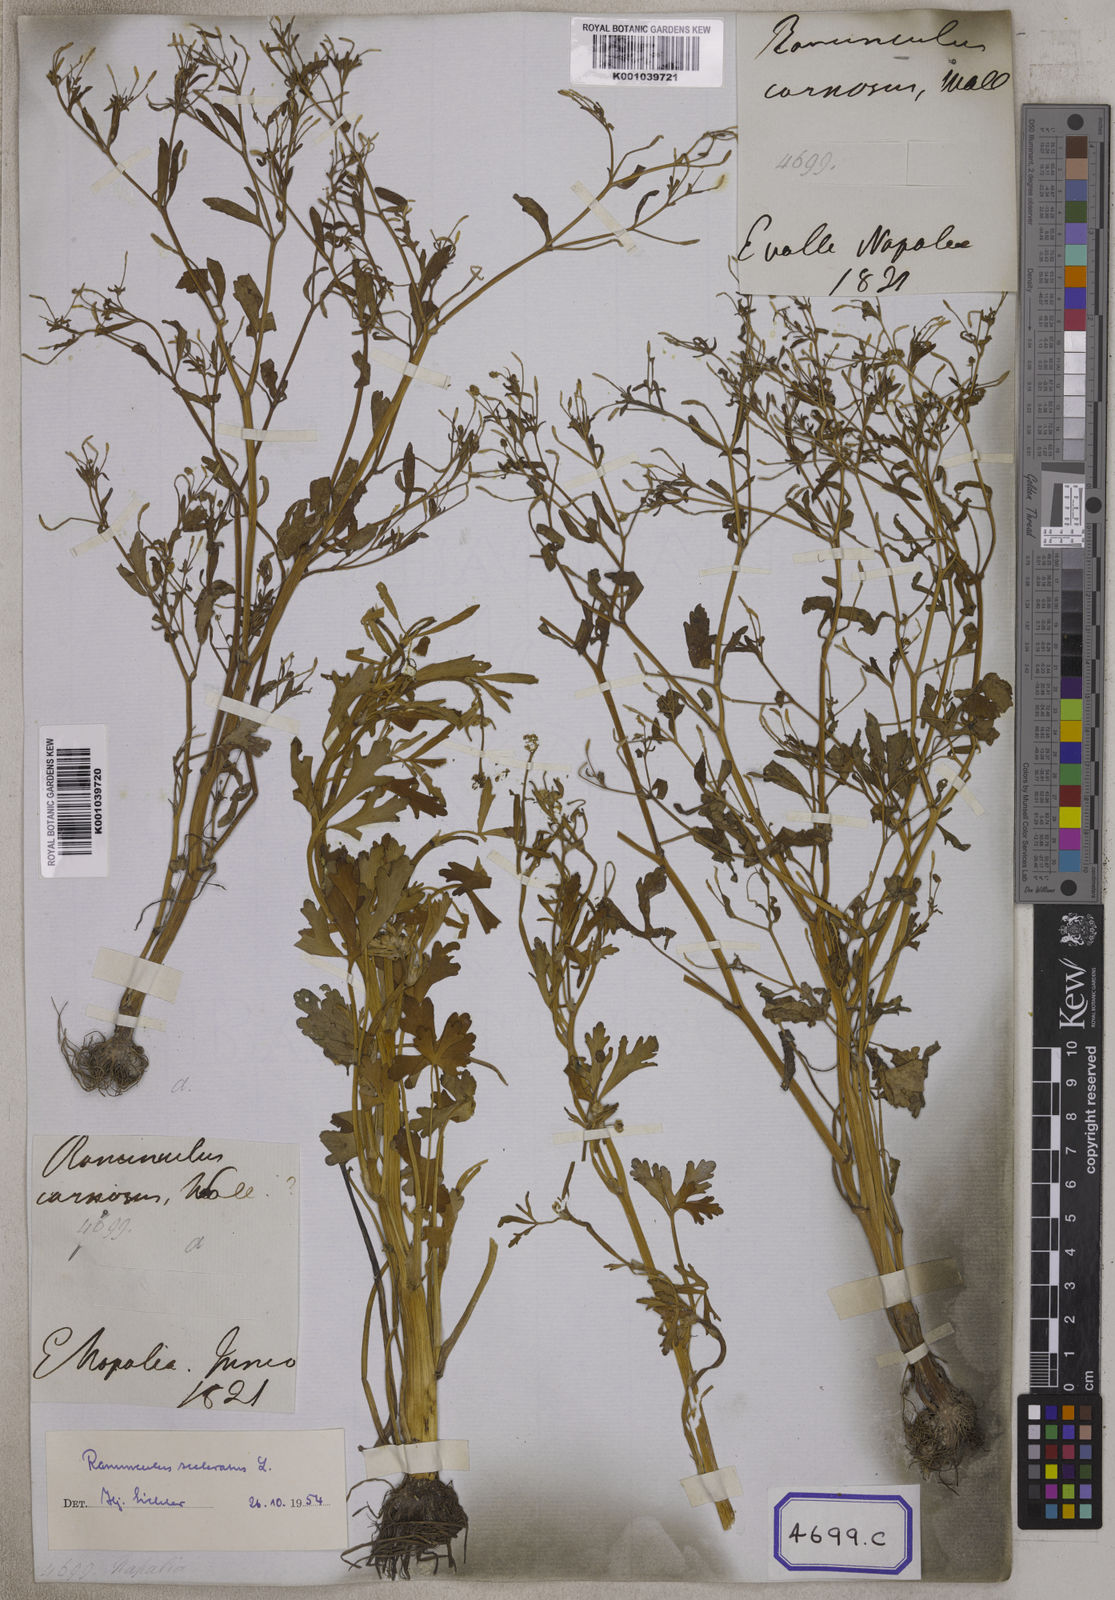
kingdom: Plantae
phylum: Tracheophyta
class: Magnoliopsida
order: Ranunculales
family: Ranunculaceae
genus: Ranunculus
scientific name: Ranunculus sceleratus
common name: Celery-leaved buttercup
